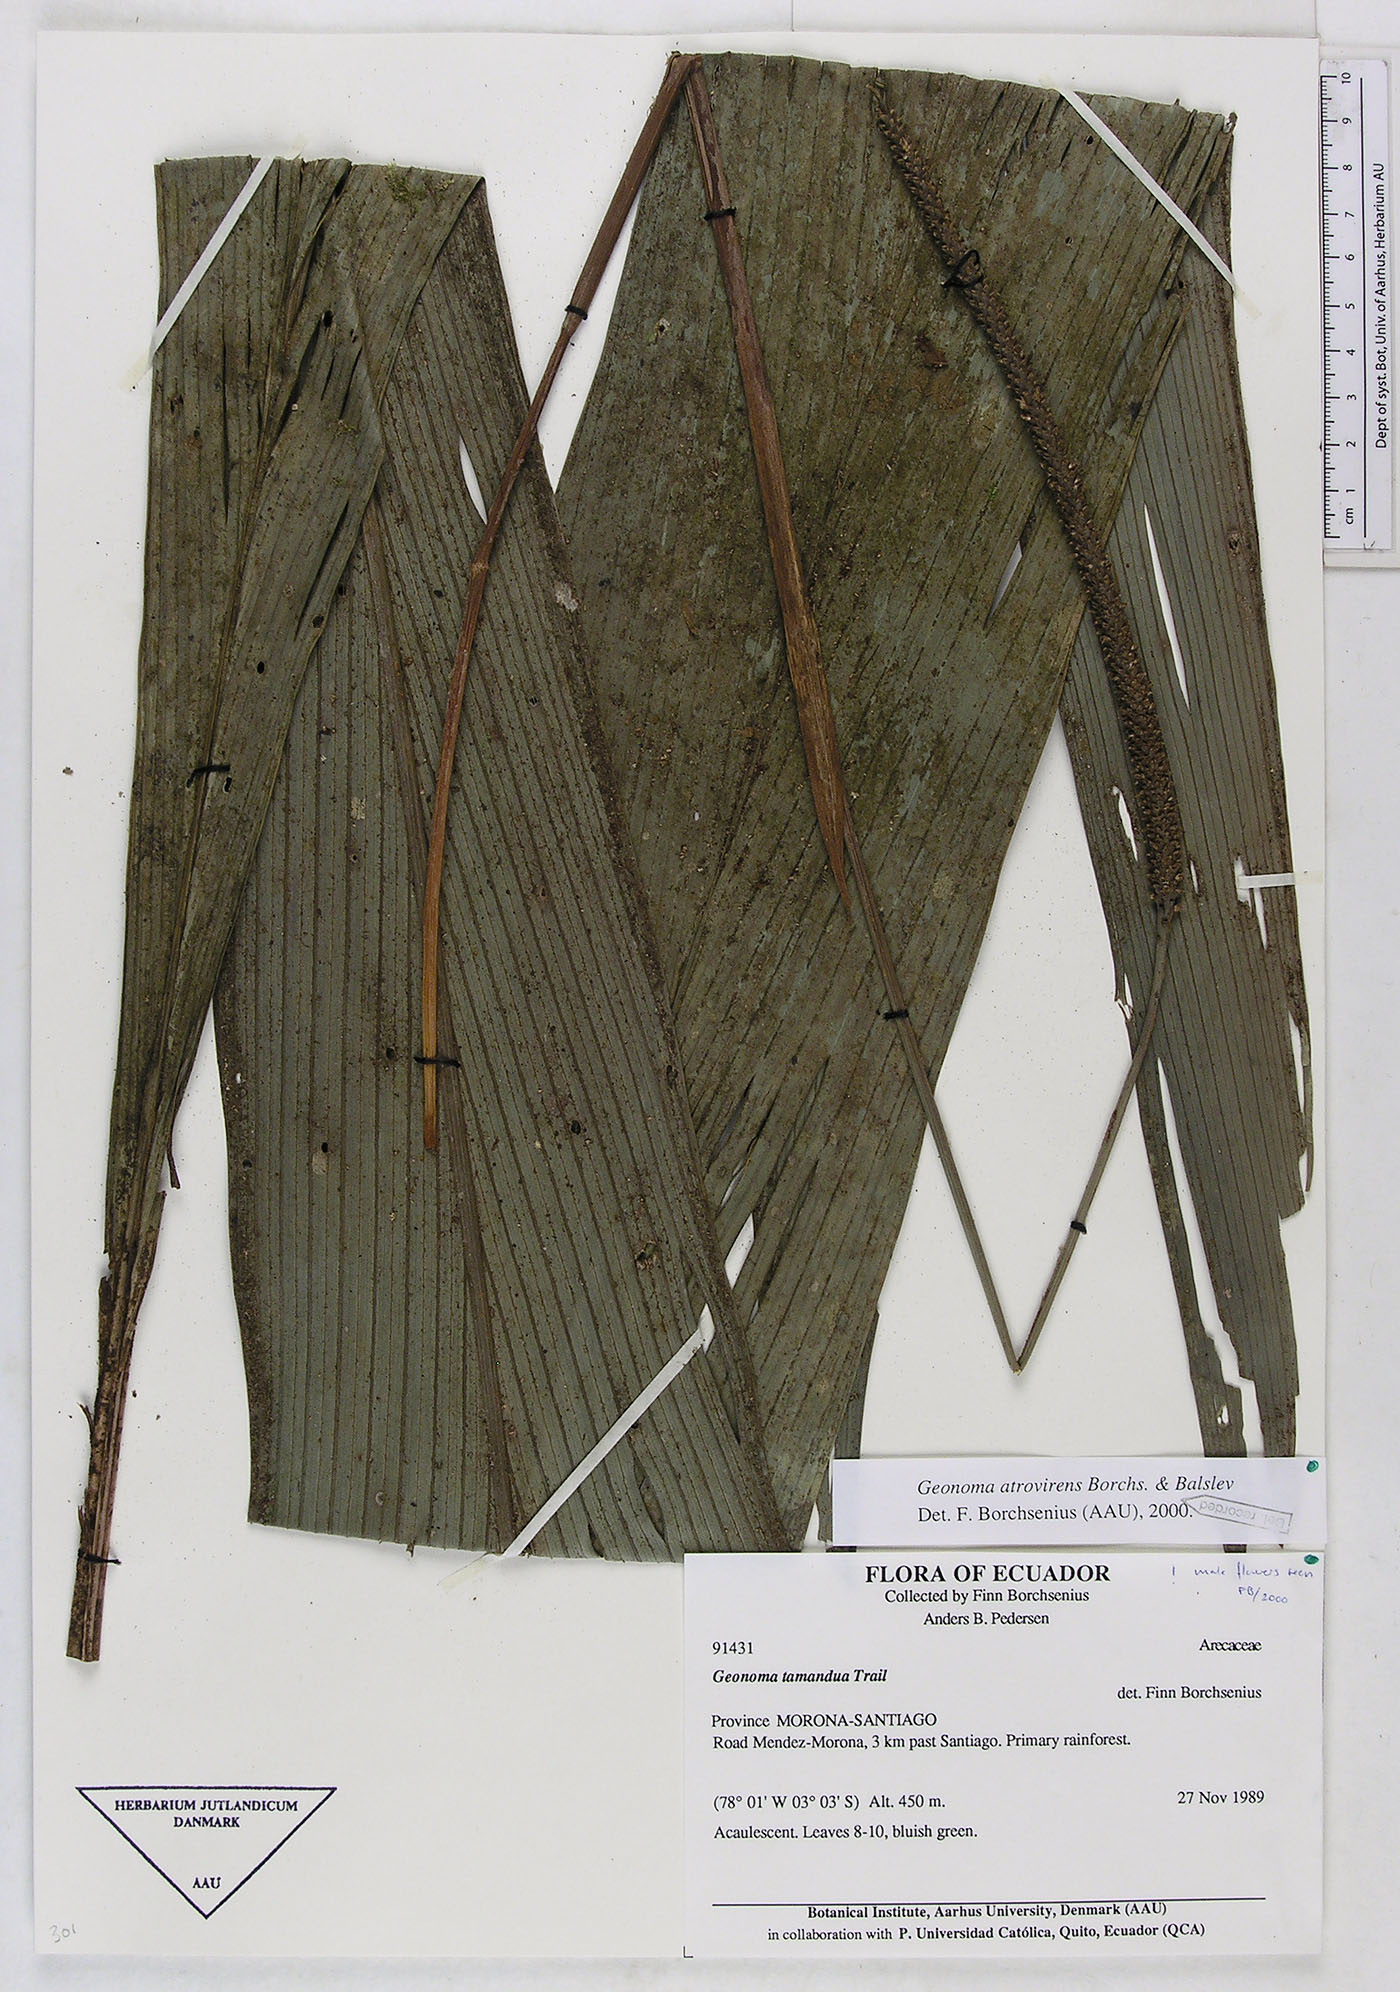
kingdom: Plantae
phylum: Tracheophyta
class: Liliopsida
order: Arecales
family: Arecaceae
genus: Geonoma
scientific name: Geonoma macrostachys
